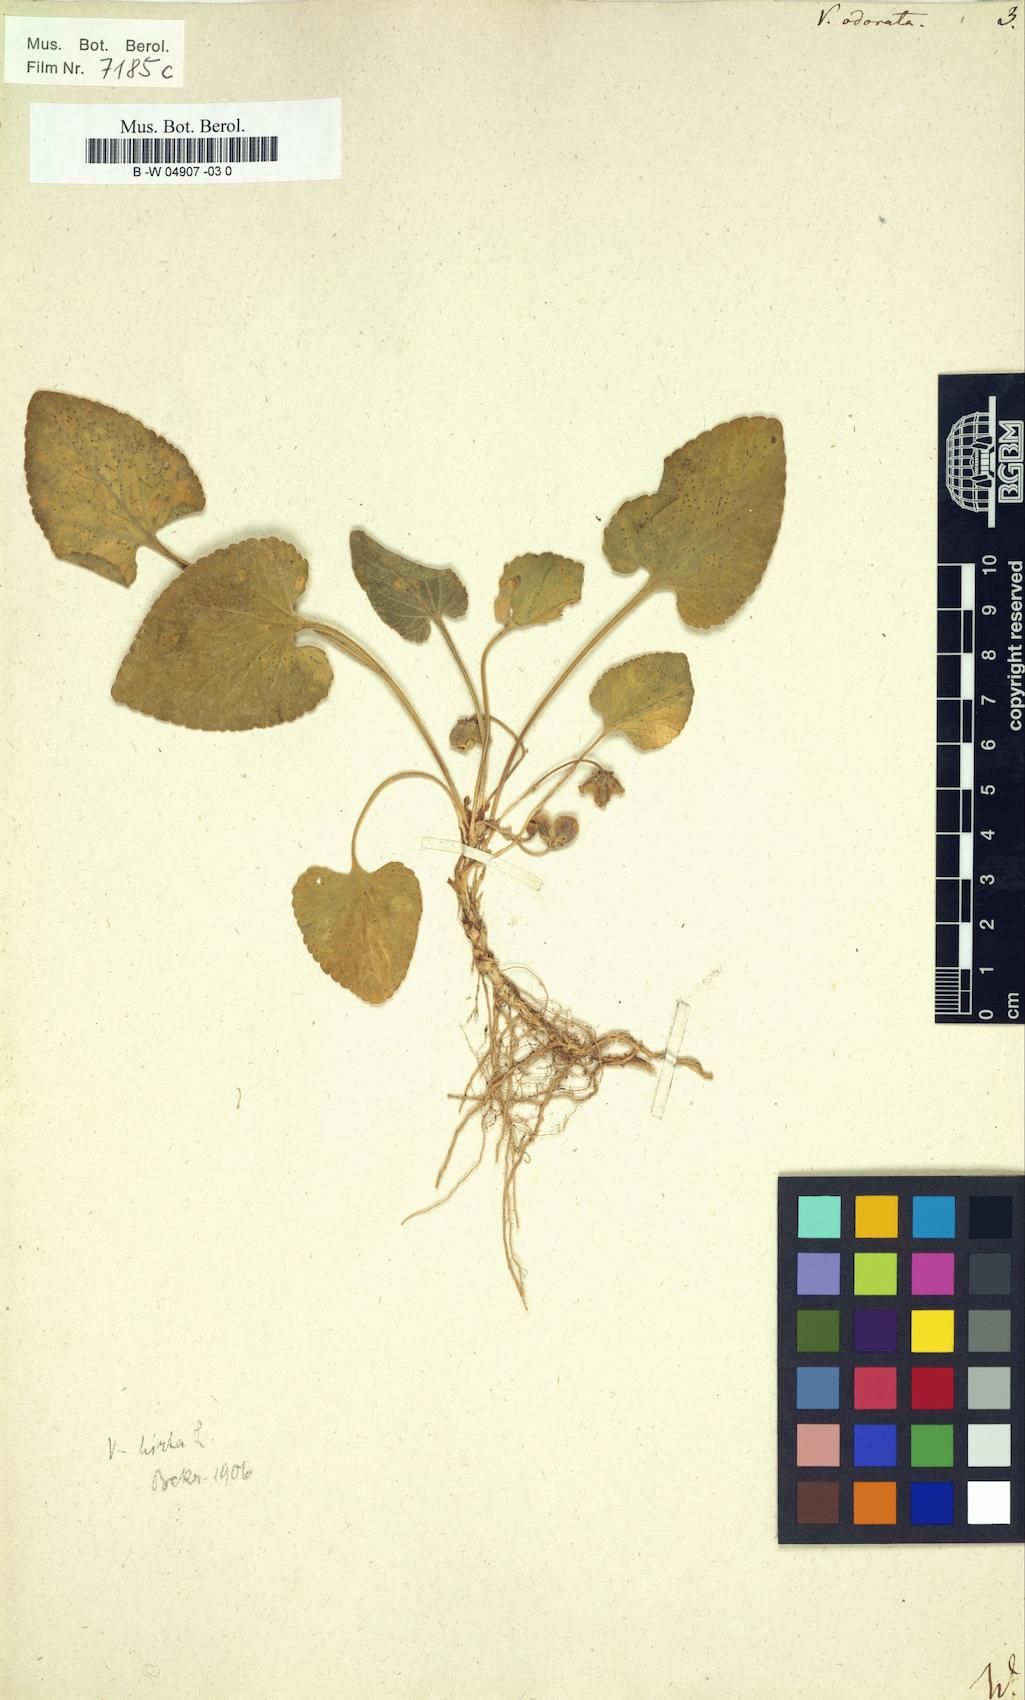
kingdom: Plantae
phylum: Tracheophyta
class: Magnoliopsida
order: Malpighiales
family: Violaceae
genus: Viola
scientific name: Viola odorata
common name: Sweet violet
